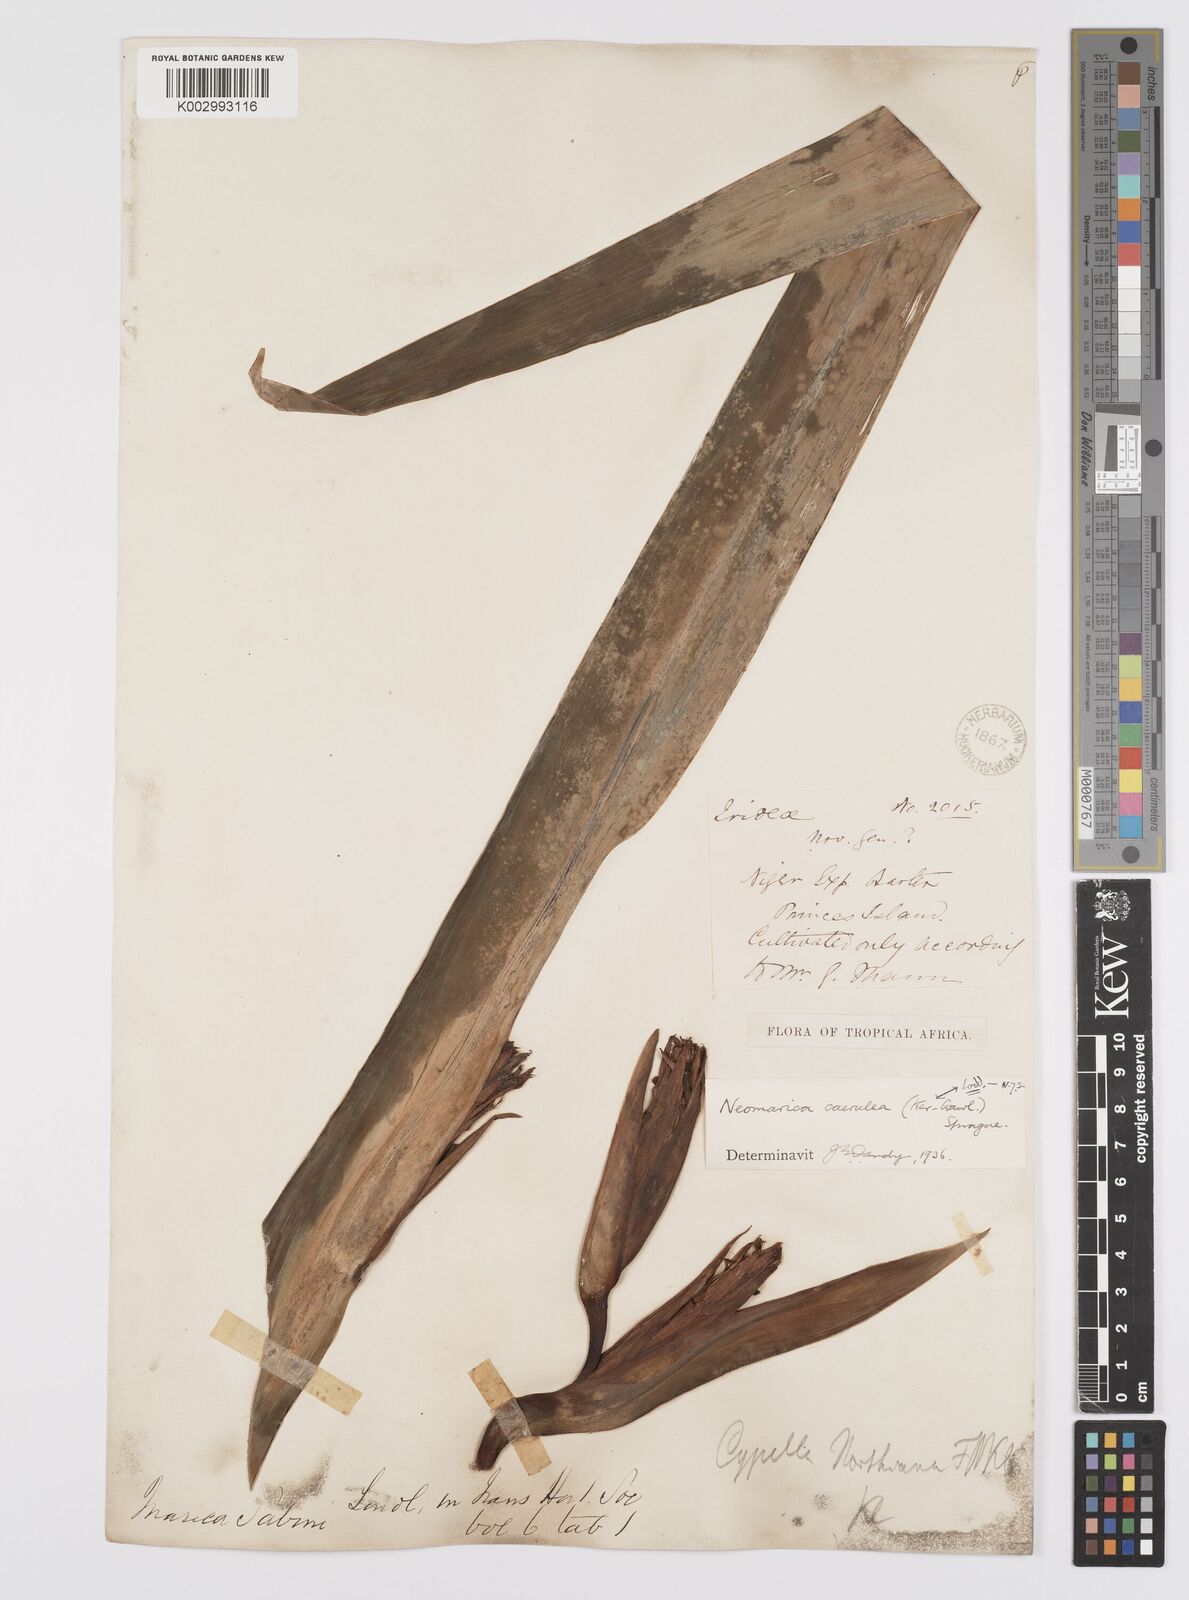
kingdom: Plantae
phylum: Tracheophyta
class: Liliopsida
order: Asparagales
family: Iridaceae
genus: Trimezia
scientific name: Trimezia coerulea
